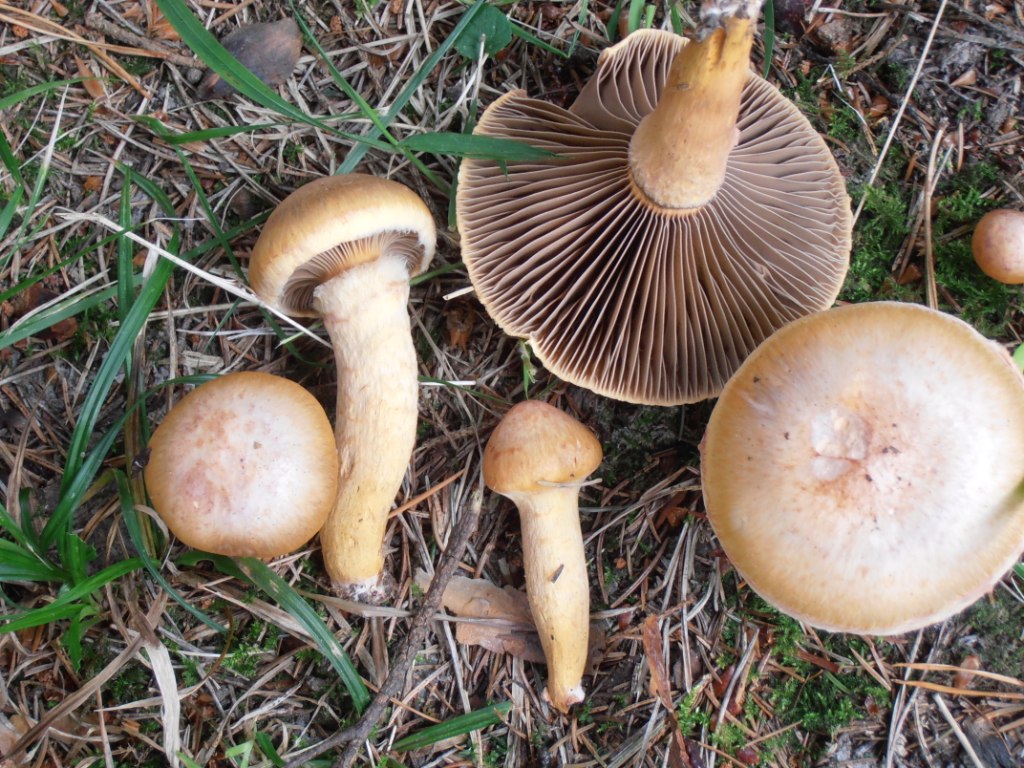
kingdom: Fungi
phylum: Basidiomycota
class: Agaricomycetes
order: Boletales
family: Gomphidiaceae
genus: Chroogomphus
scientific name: Chroogomphus rutilus
